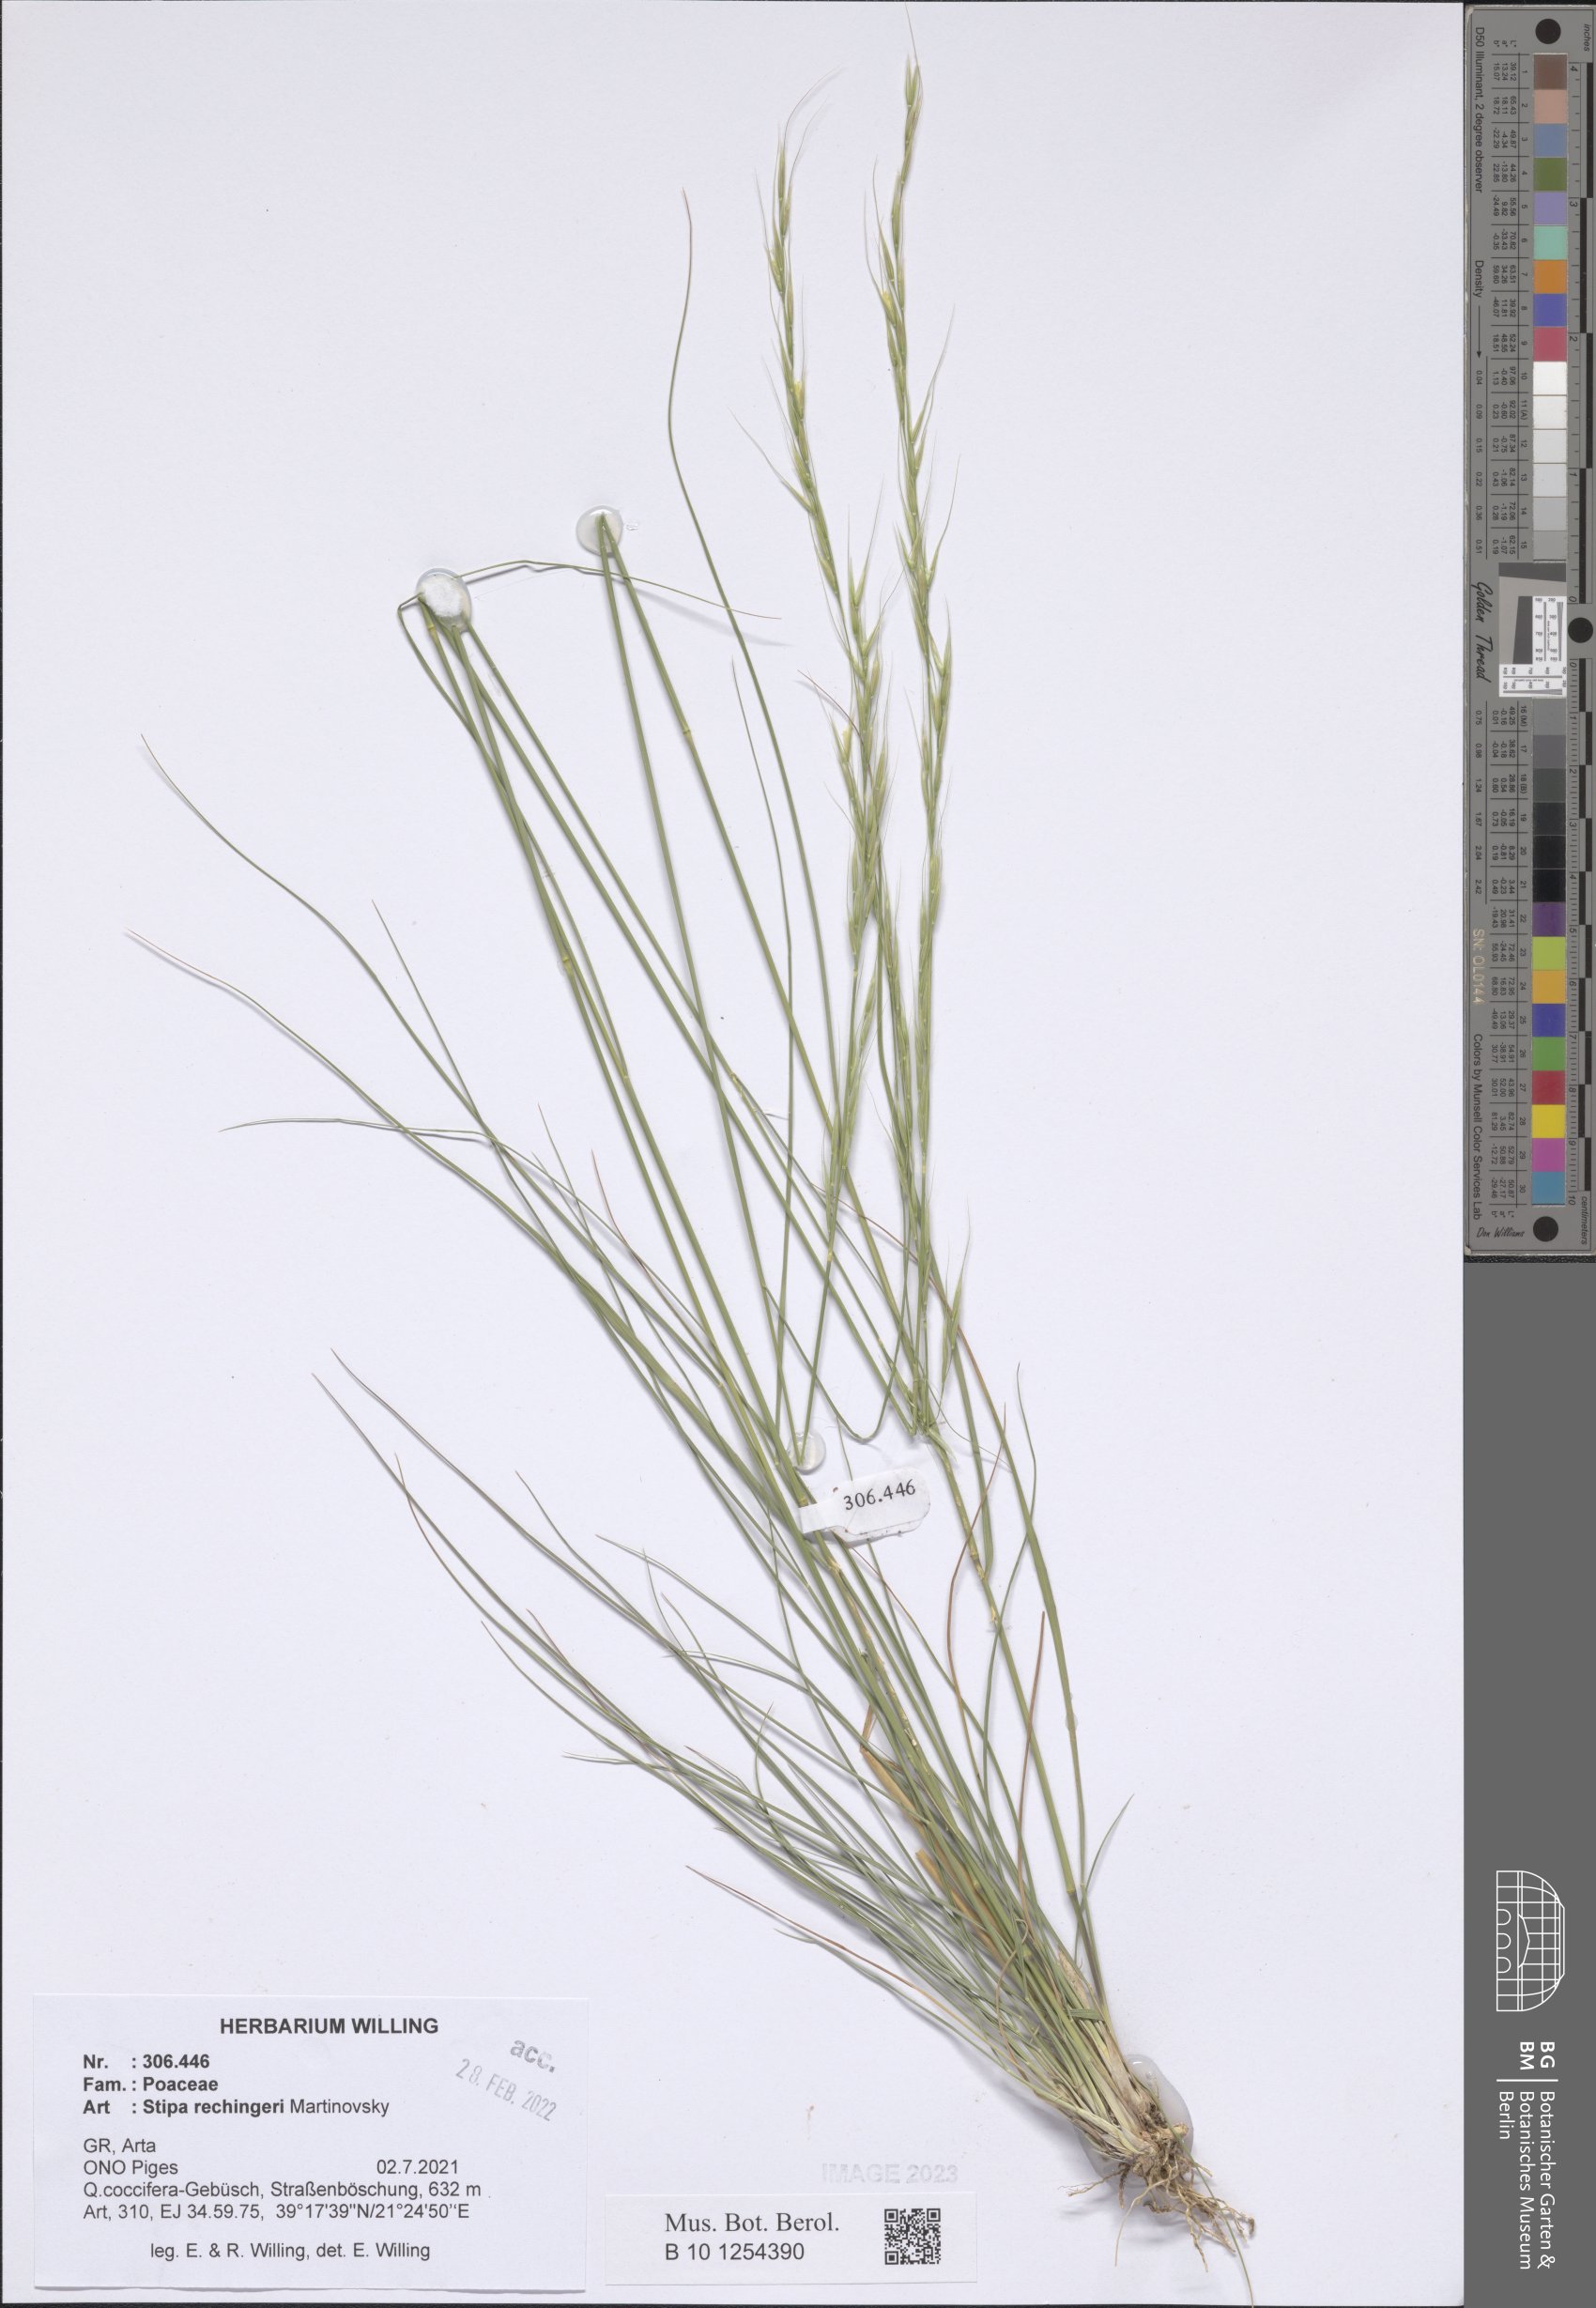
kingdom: Plantae
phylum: Tracheophyta
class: Liliopsida
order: Poales
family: Poaceae
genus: Stipa
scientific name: Stipa rechingeri
